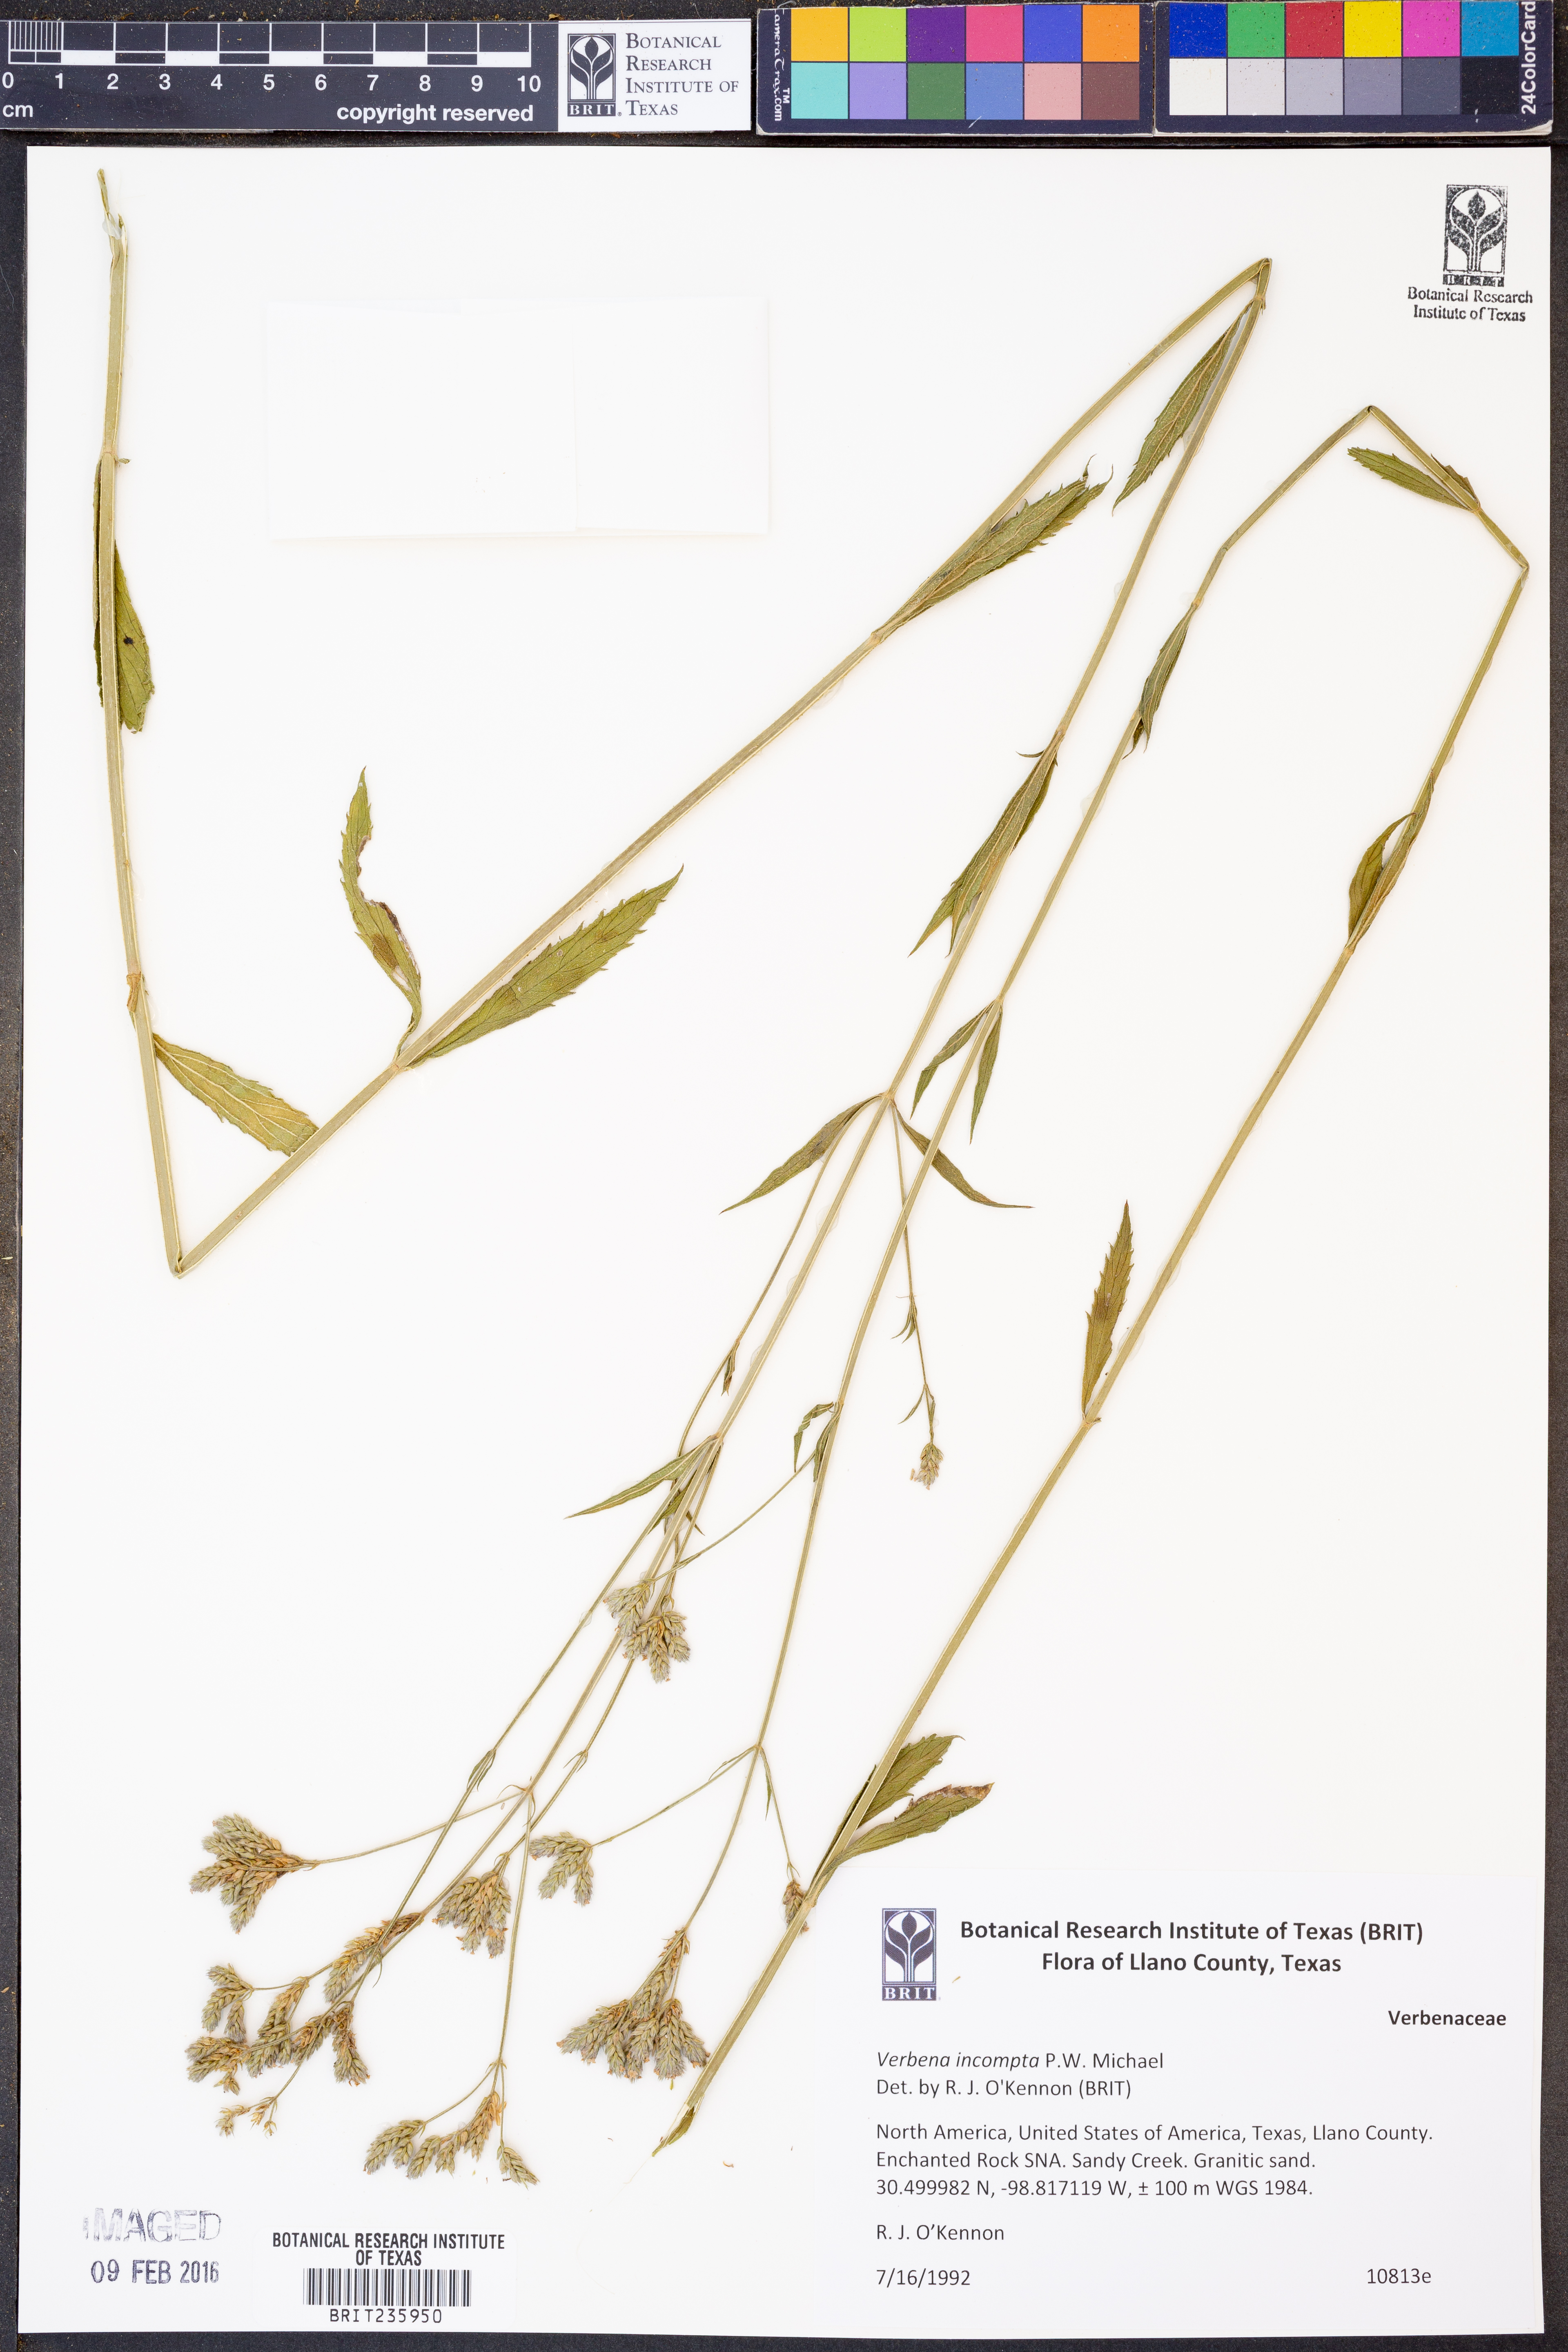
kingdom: Plantae
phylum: Tracheophyta
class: Magnoliopsida
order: Lamiales
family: Verbenaceae
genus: Verbena
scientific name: Verbena incompta
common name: Purpletop vervain
